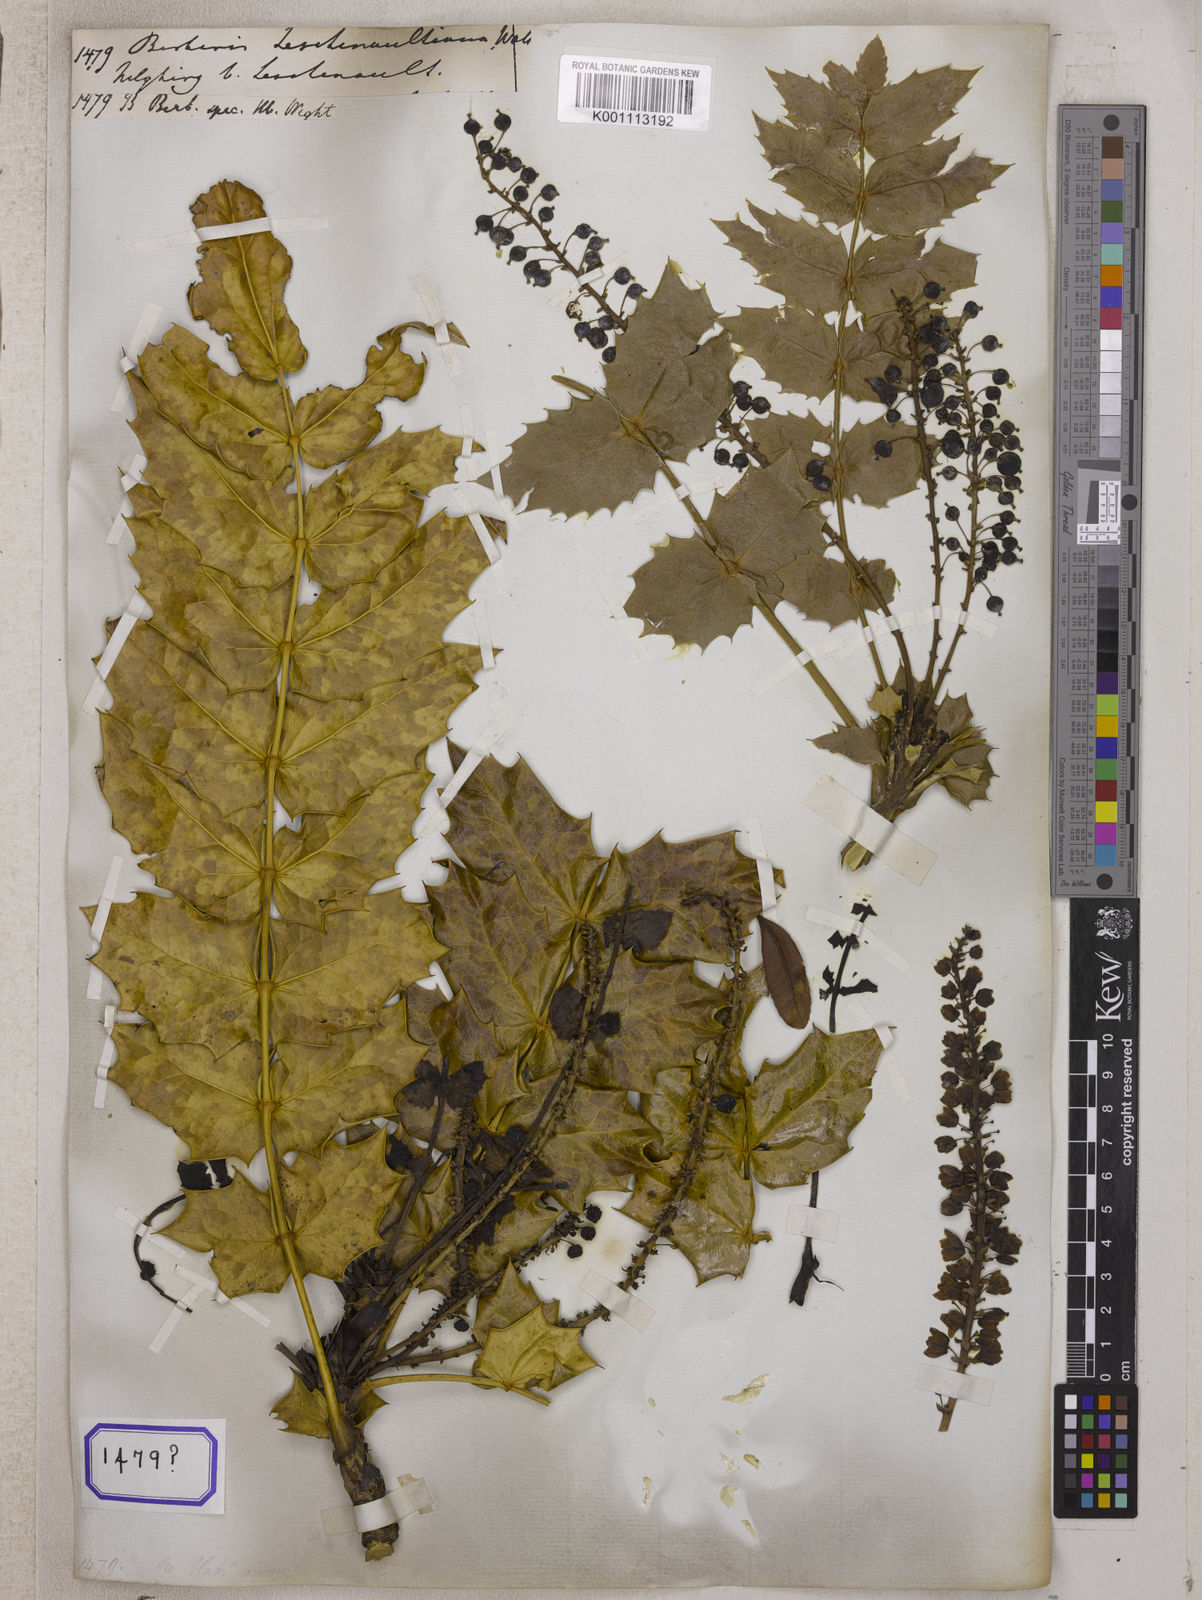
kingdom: Plantae
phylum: Tracheophyta
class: Magnoliopsida
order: Ranunculales
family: Berberidaceae
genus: Berberis
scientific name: Berberis
